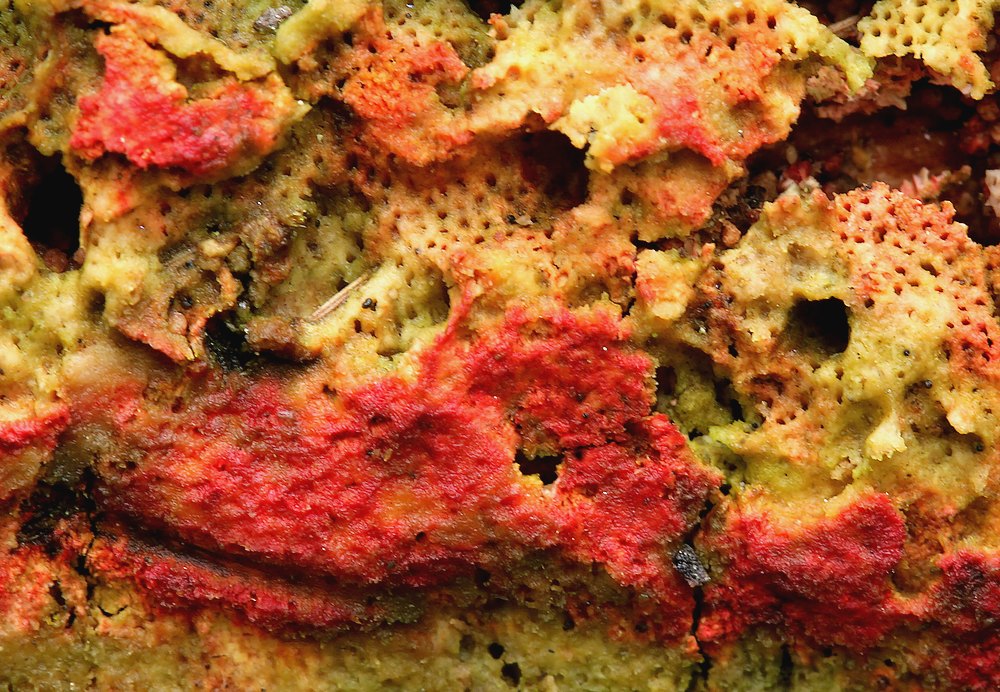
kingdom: Fungi
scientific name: Fungi
